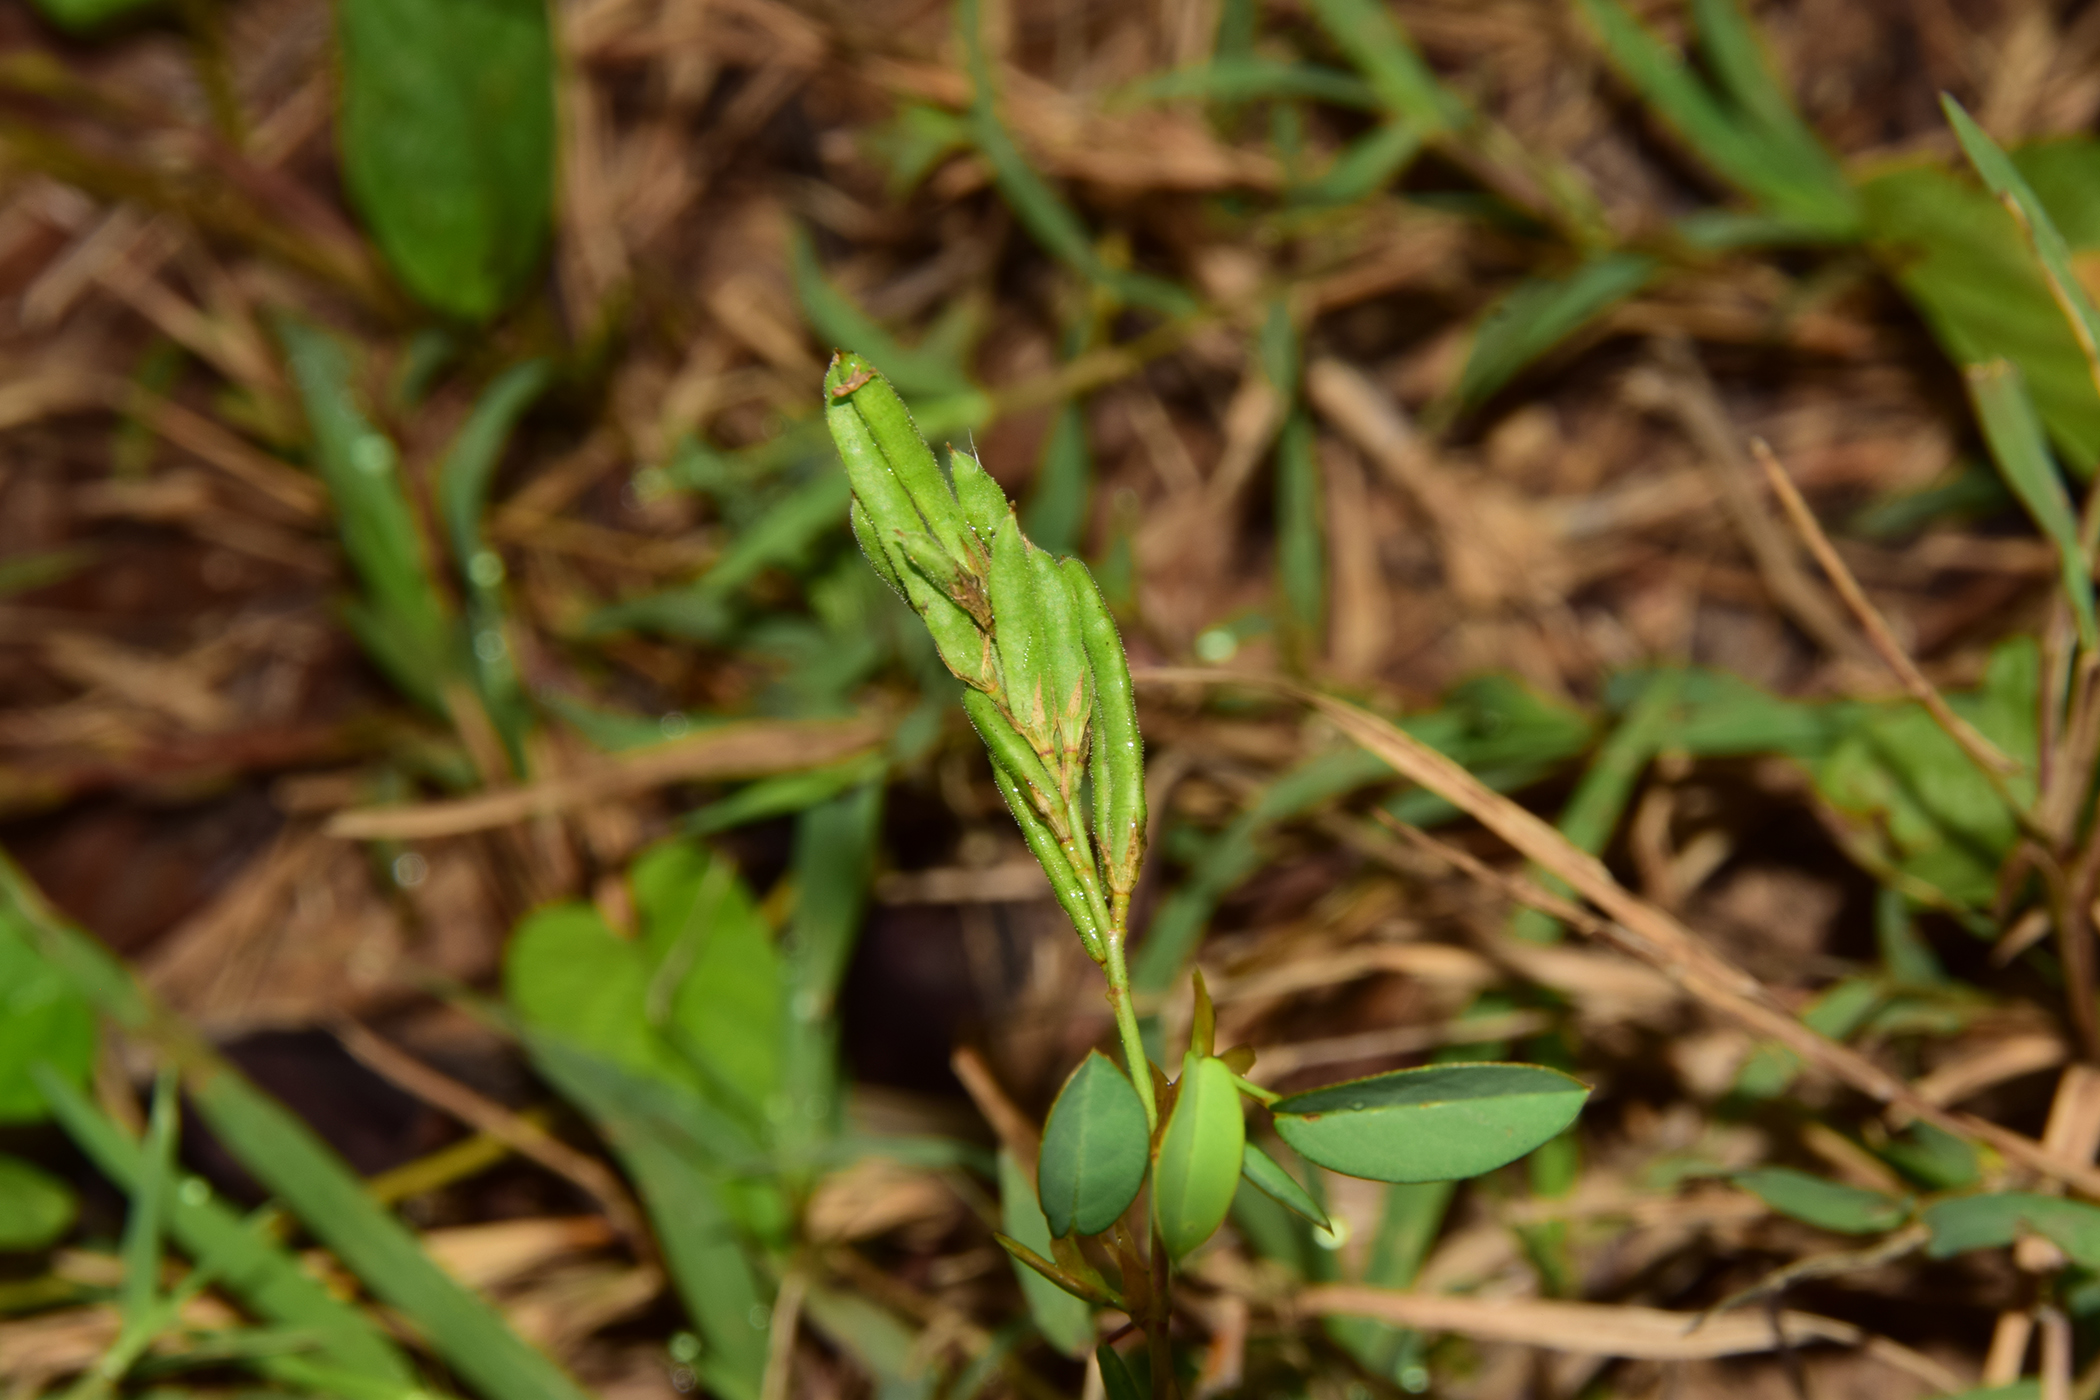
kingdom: Plantae
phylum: Tracheophyta
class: Magnoliopsida
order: Fabales
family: Fabaceae
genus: Alysicarpus
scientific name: Alysicarpus vaginalis
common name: White moneywort
